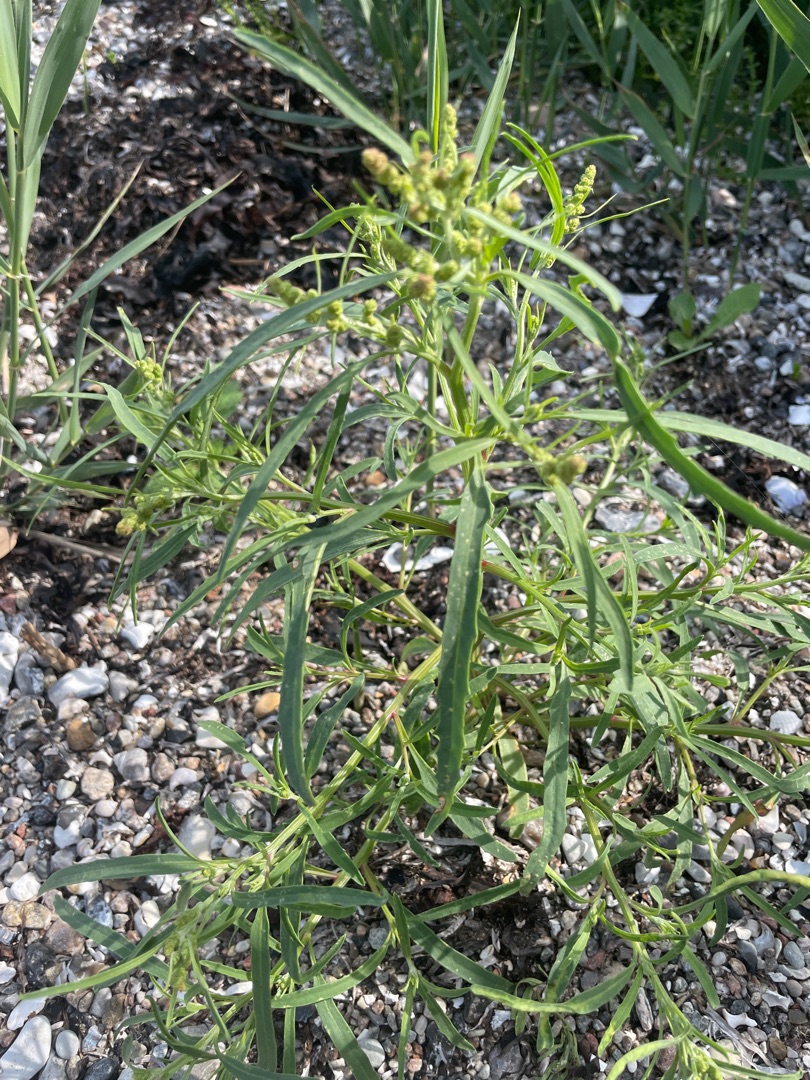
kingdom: Plantae
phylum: Tracheophyta
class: Magnoliopsida
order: Caryophyllales
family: Amaranthaceae
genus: Atriplex
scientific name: Atriplex littoralis
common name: Strand-mælde
